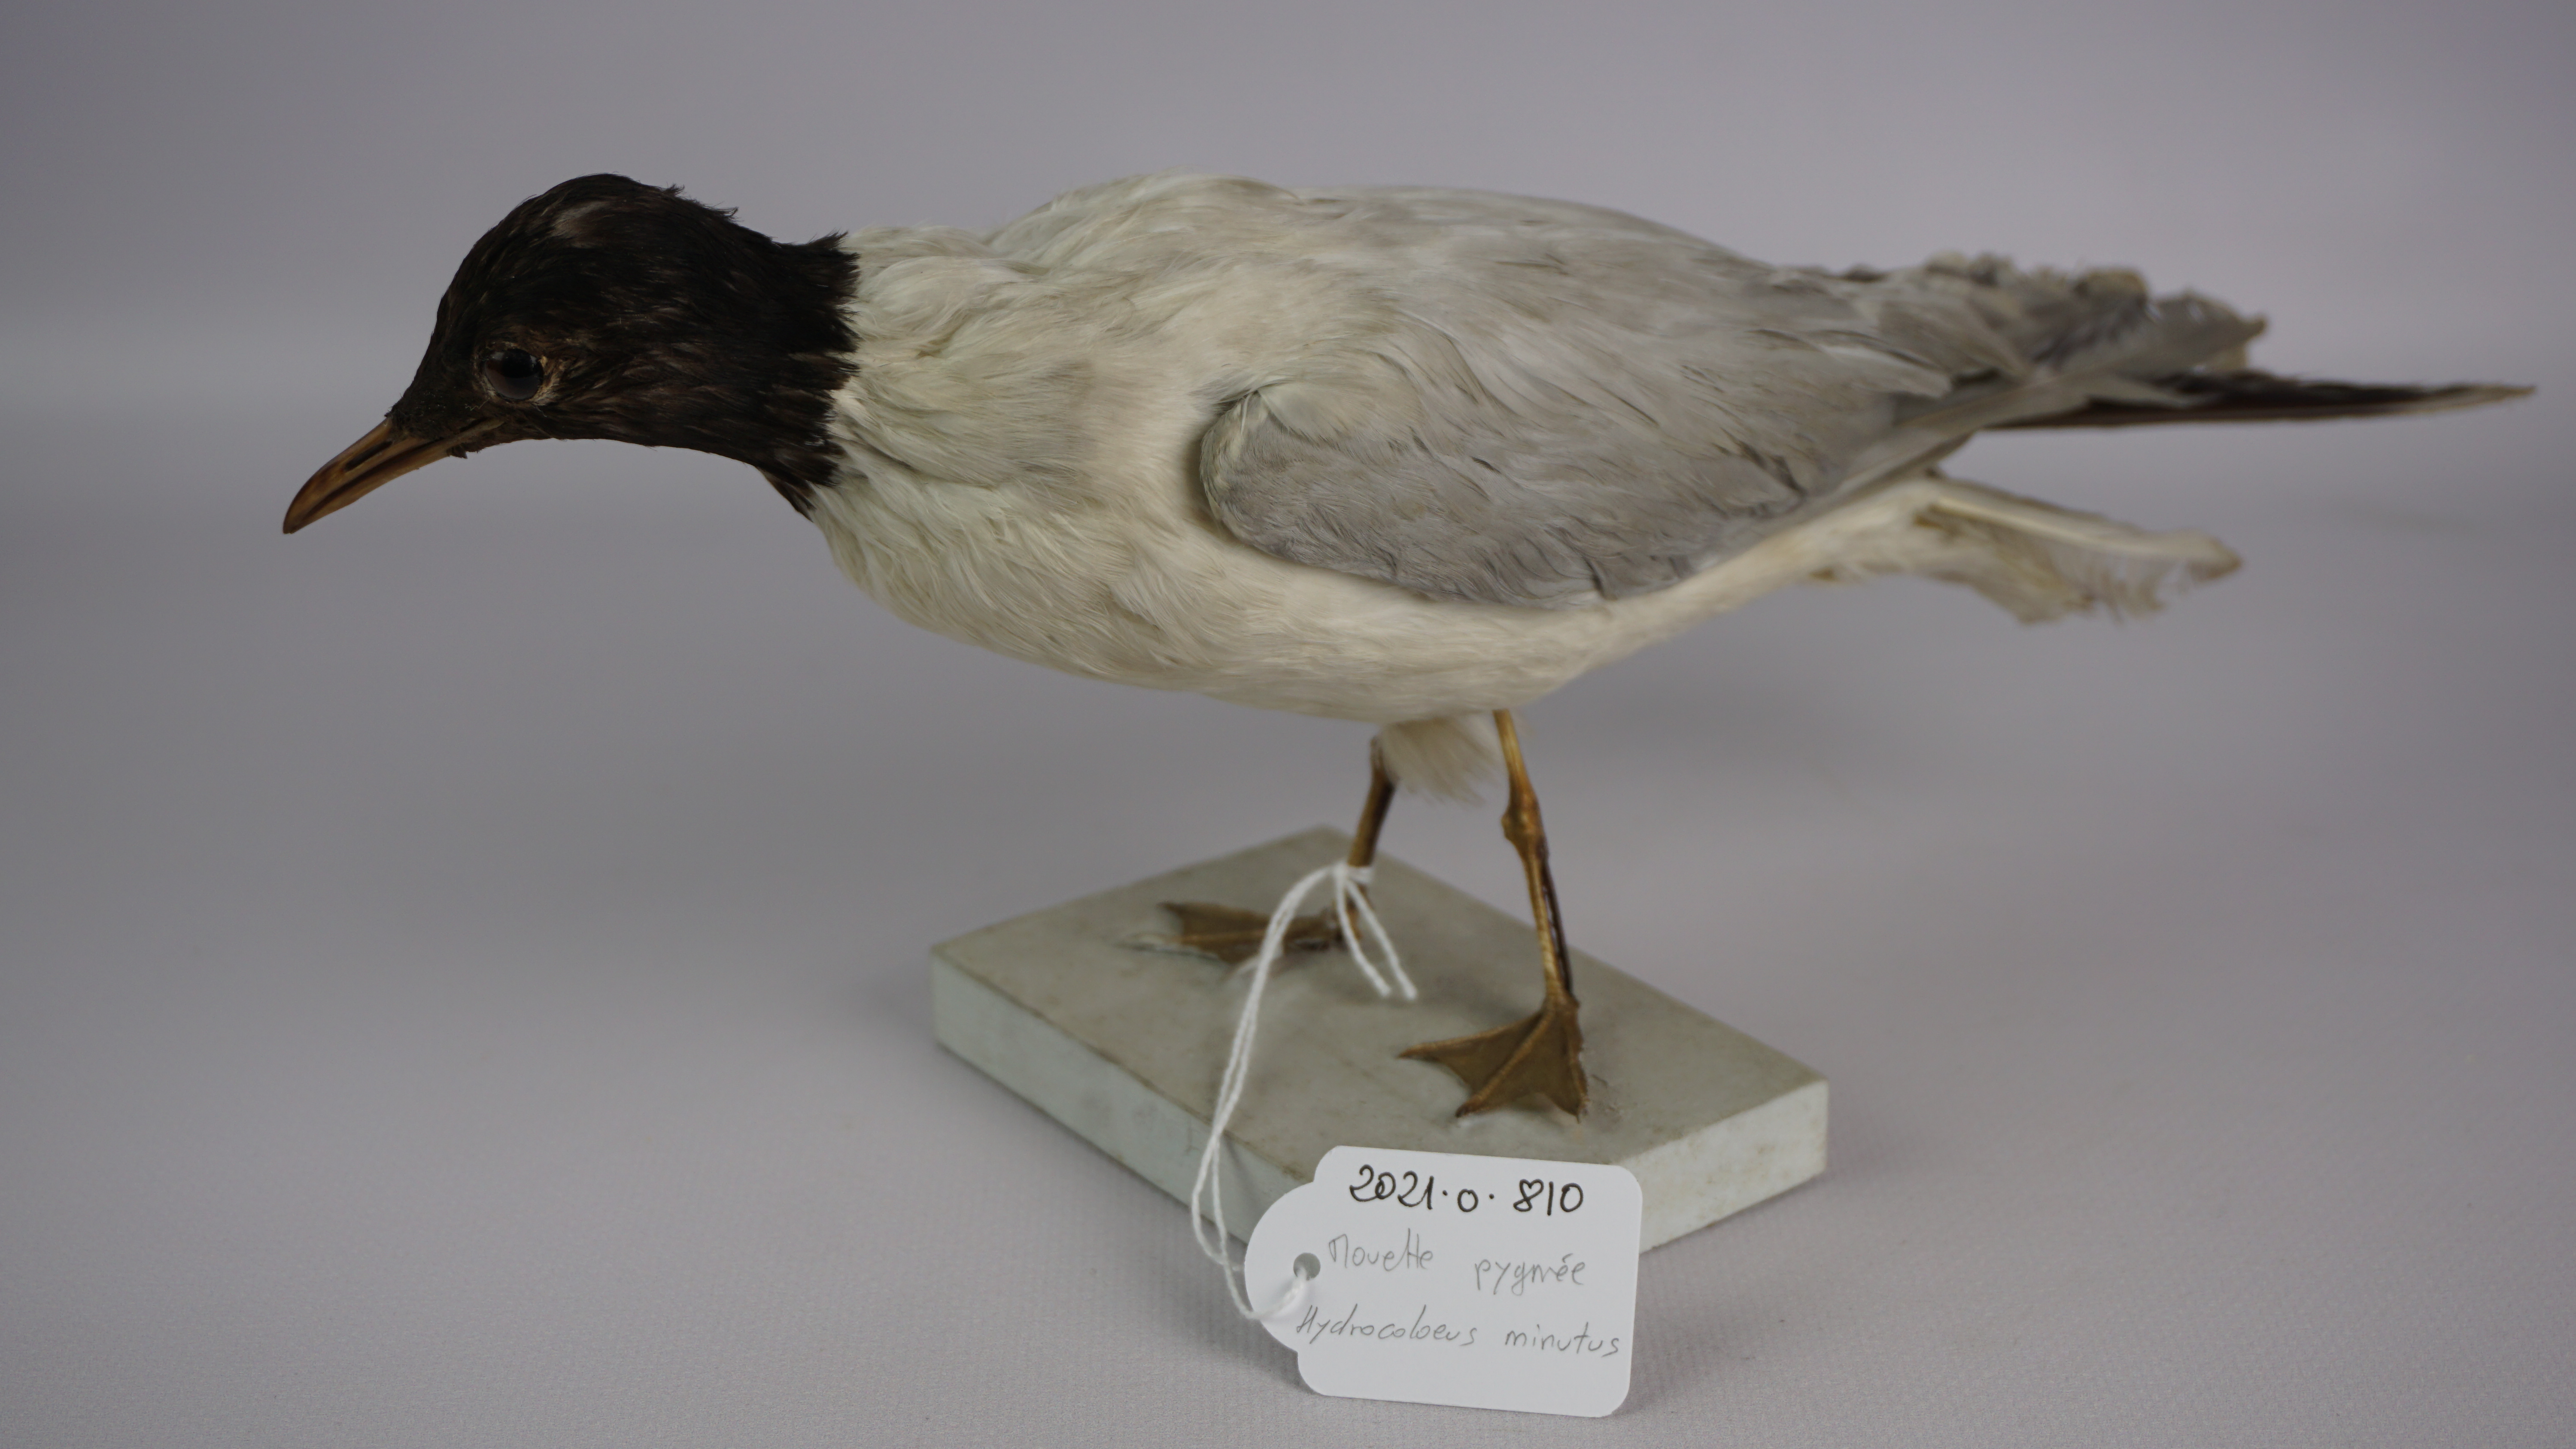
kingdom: Animalia
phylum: Chordata
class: Aves
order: Charadriiformes
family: Laridae
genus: Hydrocoloeus
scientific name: Hydrocoloeus minutus
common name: Little gull
